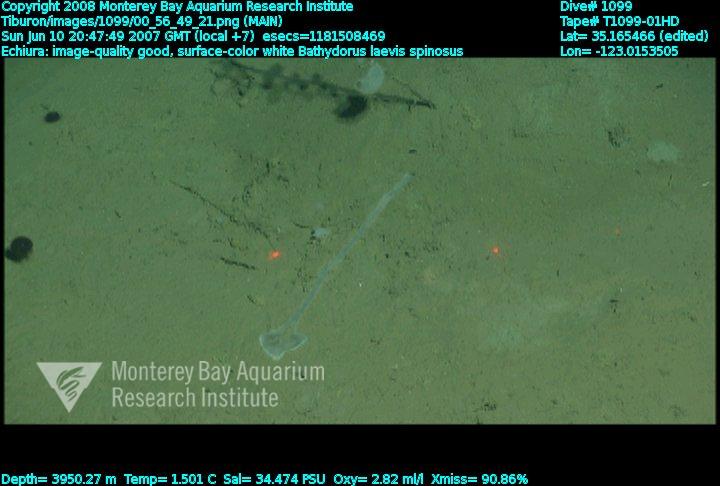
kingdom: Animalia
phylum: Porifera
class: Hexactinellida
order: Lyssacinosida
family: Rossellidae
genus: Bathydorus
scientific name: Bathydorus spinosus
